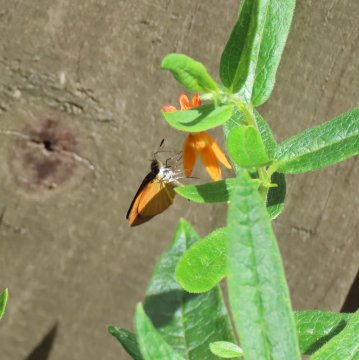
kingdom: Animalia
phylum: Arthropoda
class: Insecta
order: Lepidoptera
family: Hesperiidae
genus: Ancyloxypha
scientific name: Ancyloxypha numitor
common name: Least Skipper
